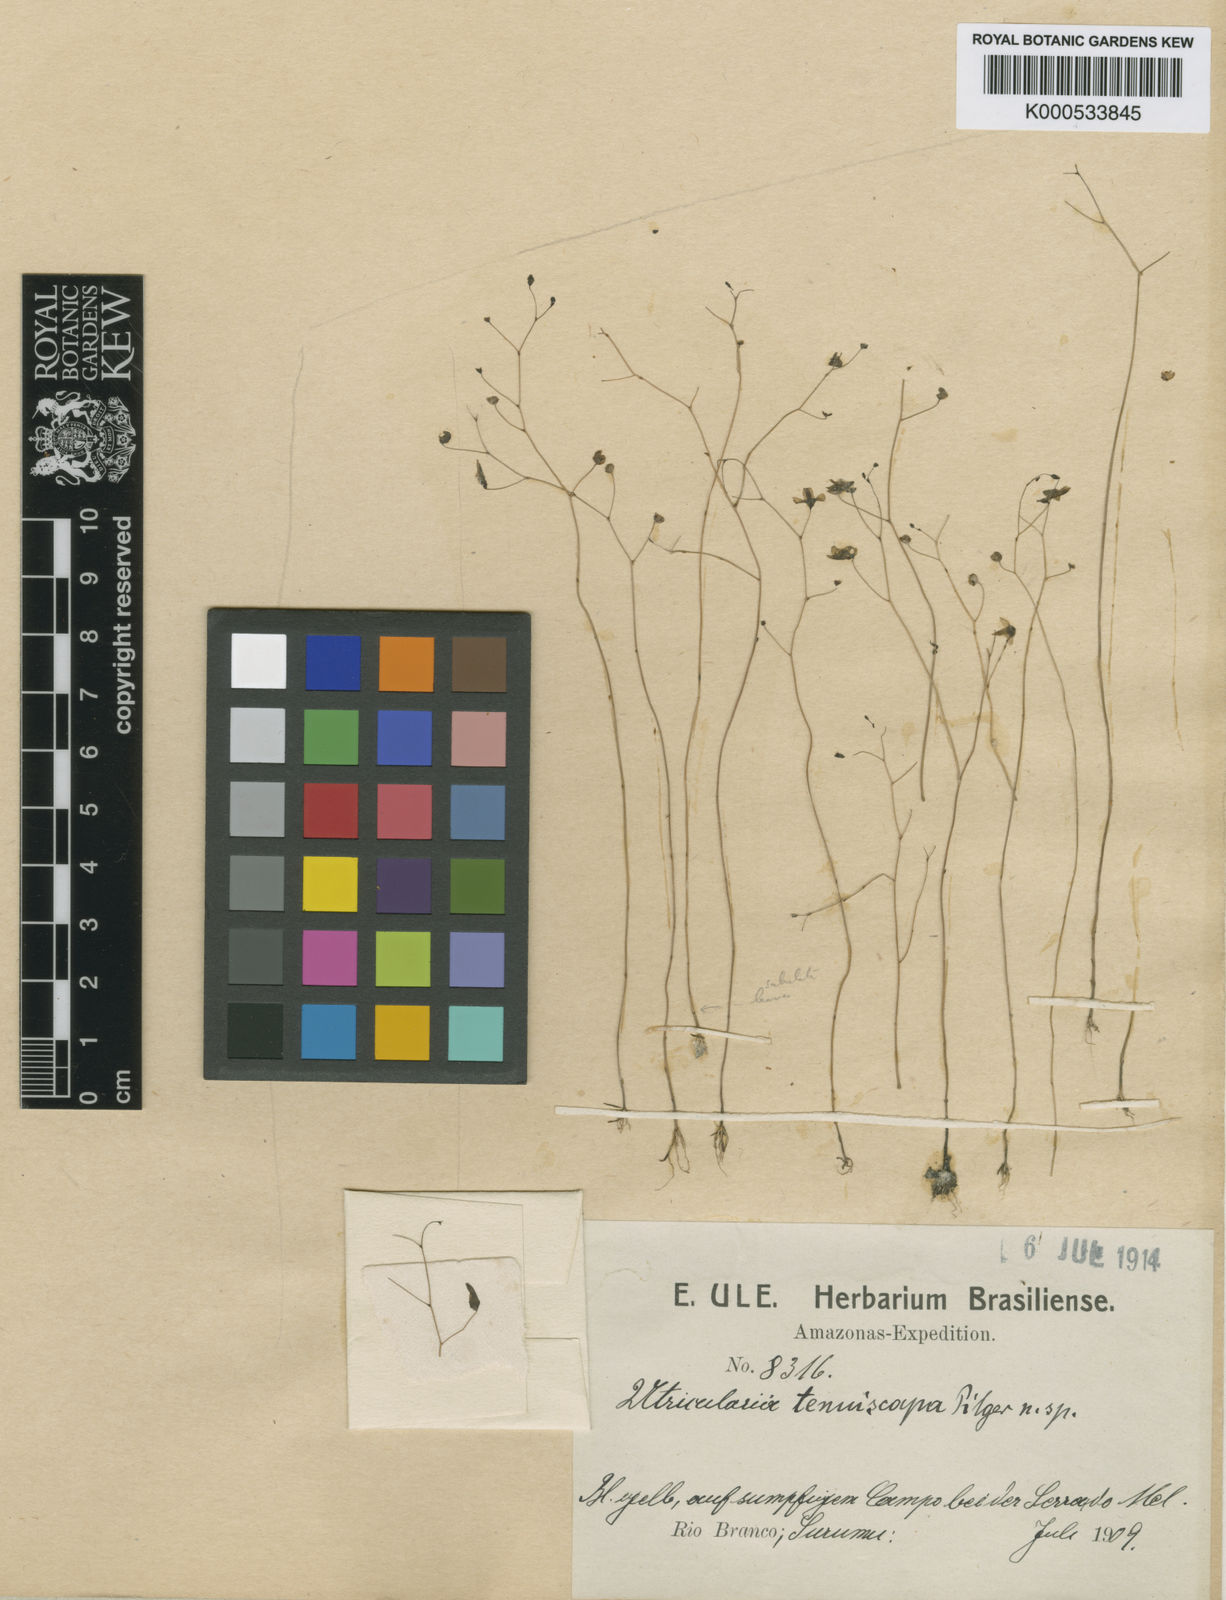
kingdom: Plantae
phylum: Tracheophyta
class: Magnoliopsida
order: Lamiales
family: Lentibulariaceae
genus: Utricularia
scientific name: Utricularia subulata
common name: Tiny bladderwort
